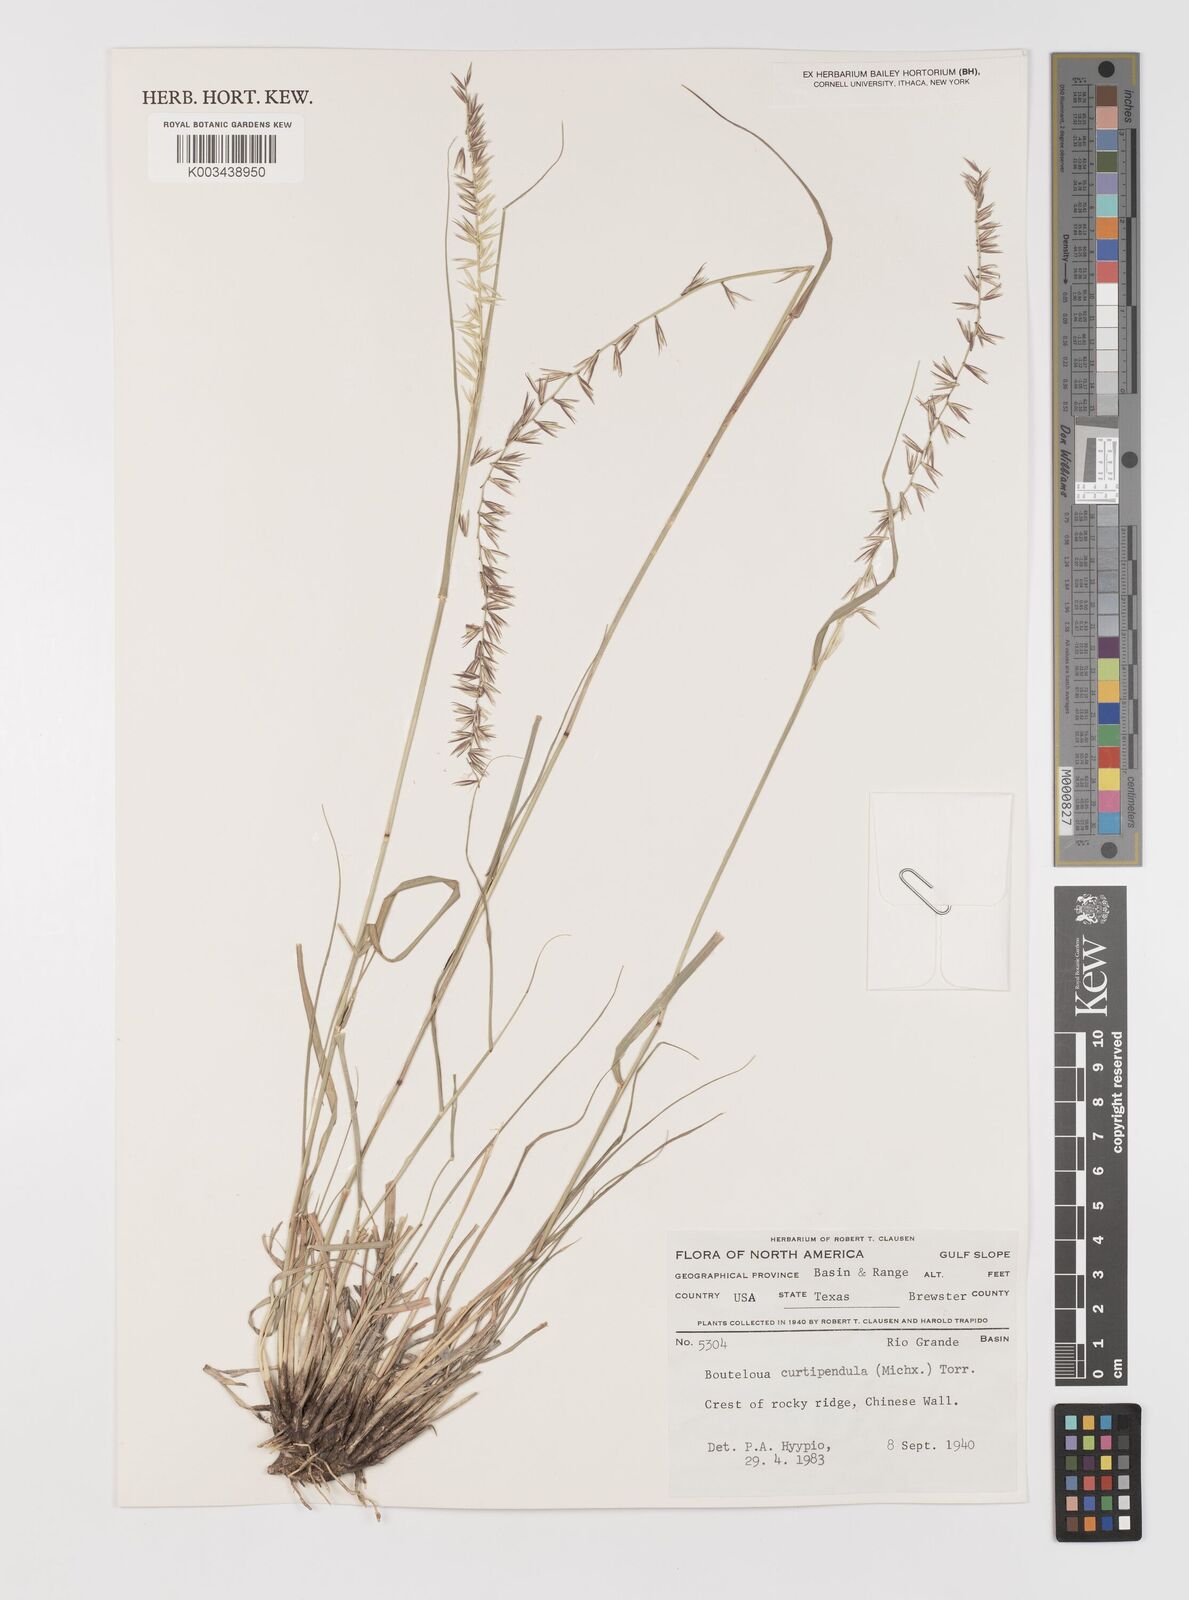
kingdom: Plantae
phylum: Tracheophyta
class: Liliopsida
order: Poales
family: Poaceae
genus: Bouteloua
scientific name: Bouteloua curtipendula
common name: Side-oats grama
